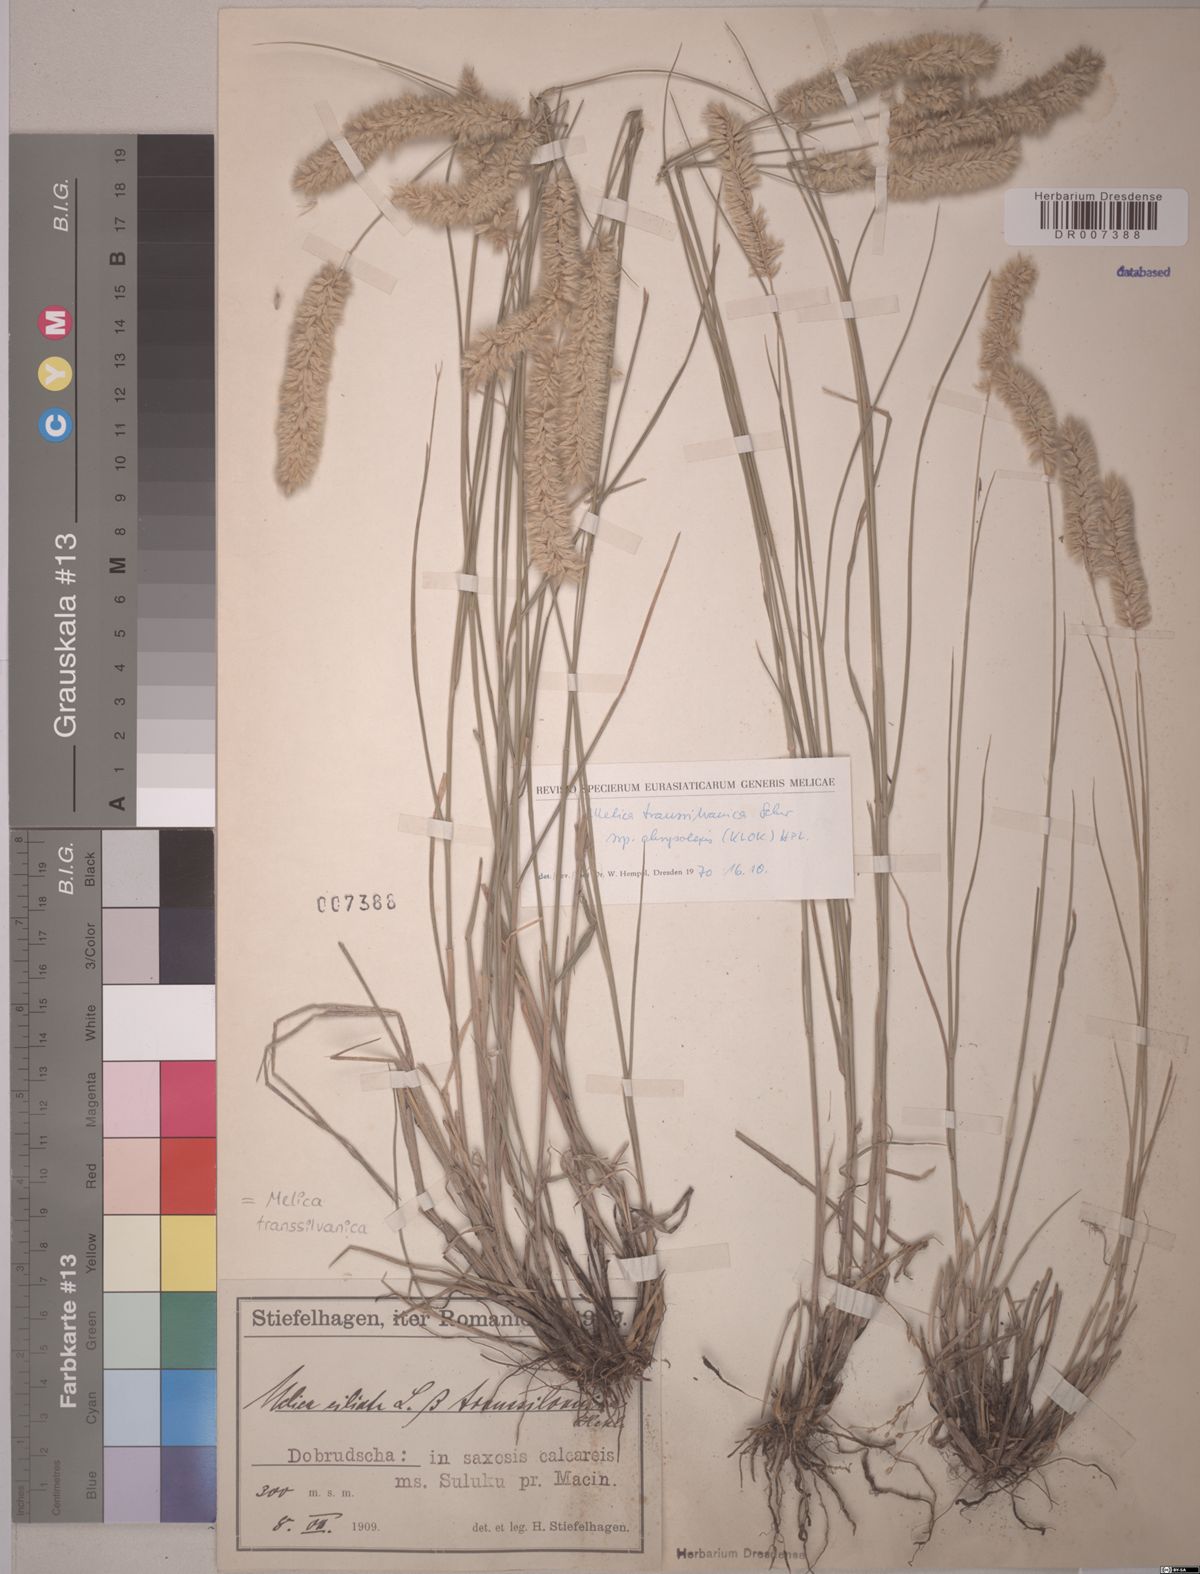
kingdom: Plantae
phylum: Tracheophyta
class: Liliopsida
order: Poales
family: Poaceae
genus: Melica
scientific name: Melica transsilvanica
